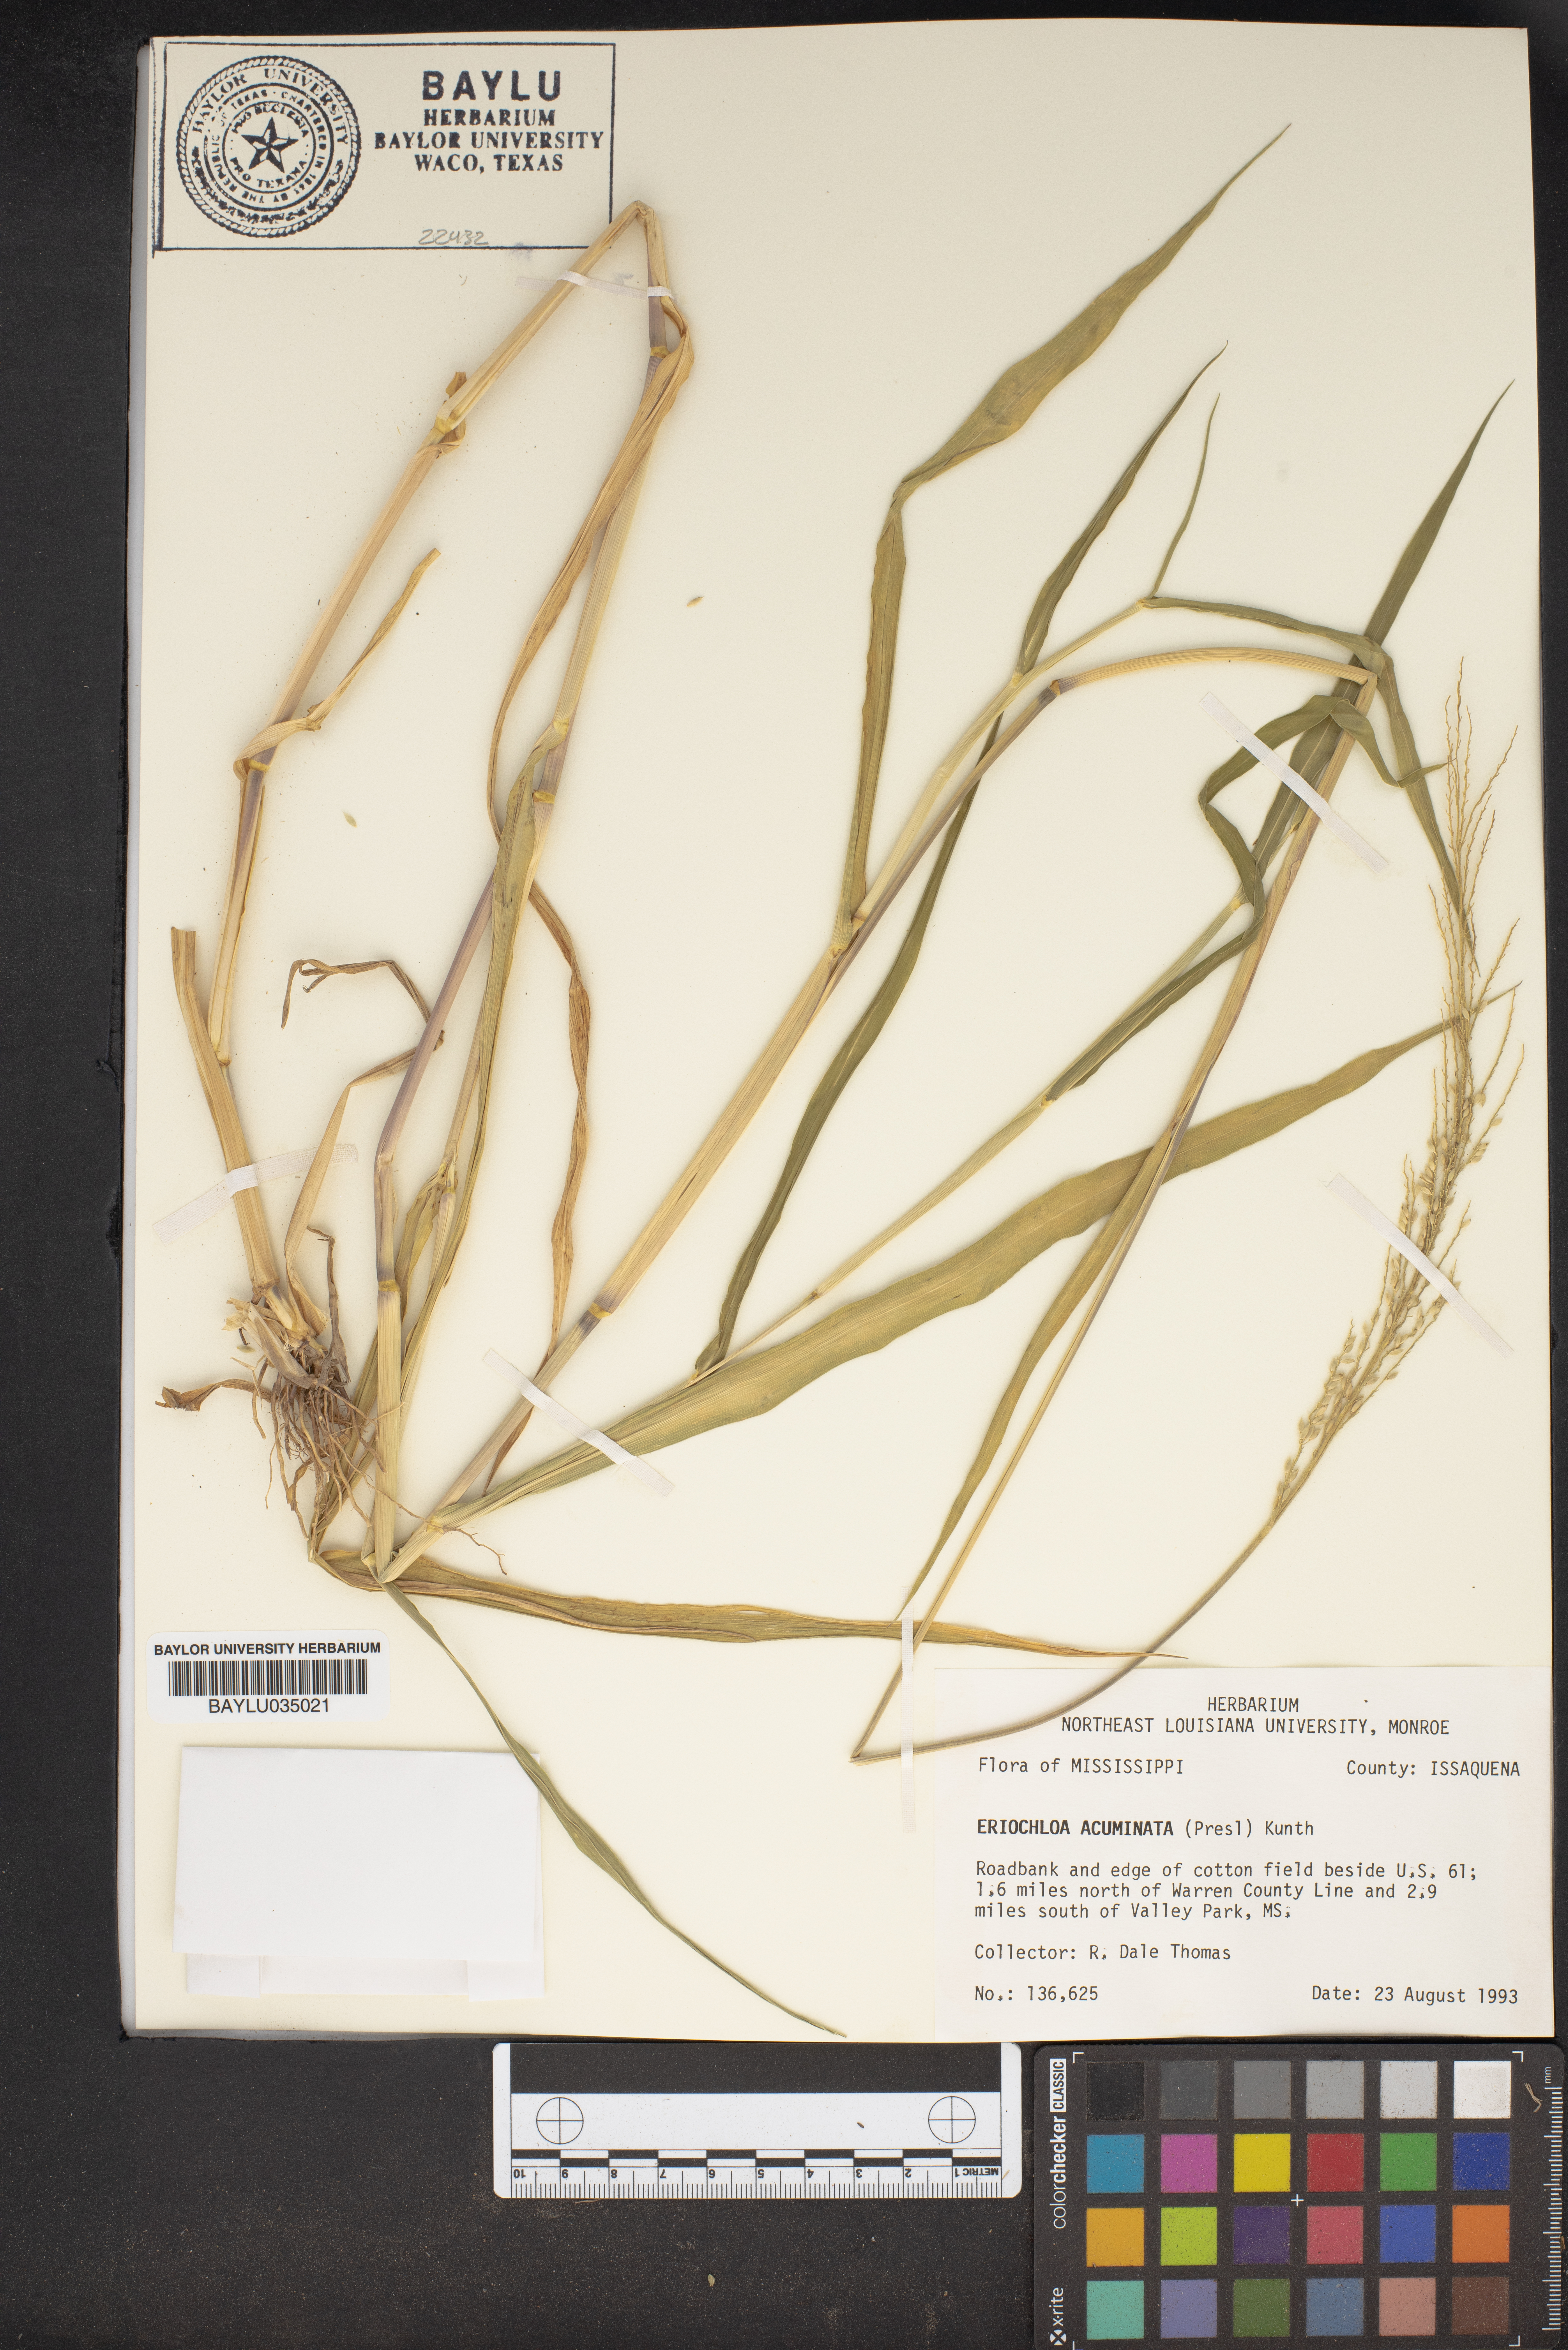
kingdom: Plantae
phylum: Tracheophyta
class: Liliopsida
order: Poales
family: Poaceae
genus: Eriochloa
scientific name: Eriochloa acuminata
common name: Southwestern cup grass
